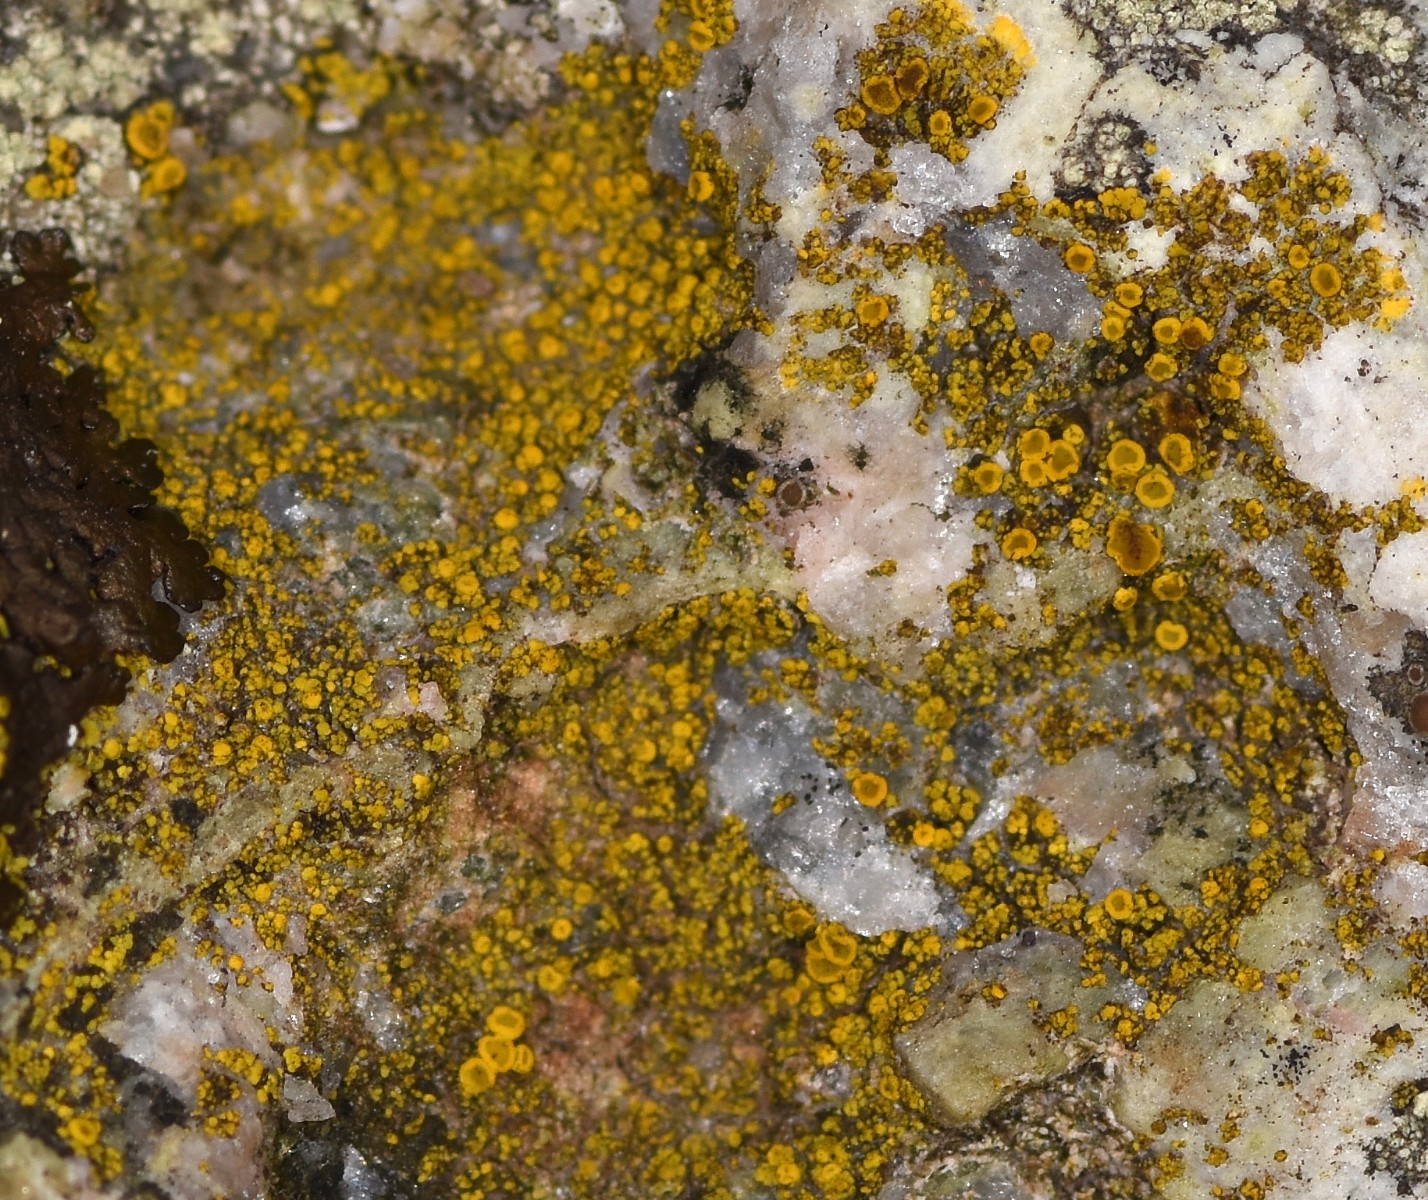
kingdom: Fungi
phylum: Ascomycota
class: Candelariomycetes
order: Candelariales
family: Candelariaceae
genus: Candelariella
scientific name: Candelariella vitellina
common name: almindelig æggeblommelav
